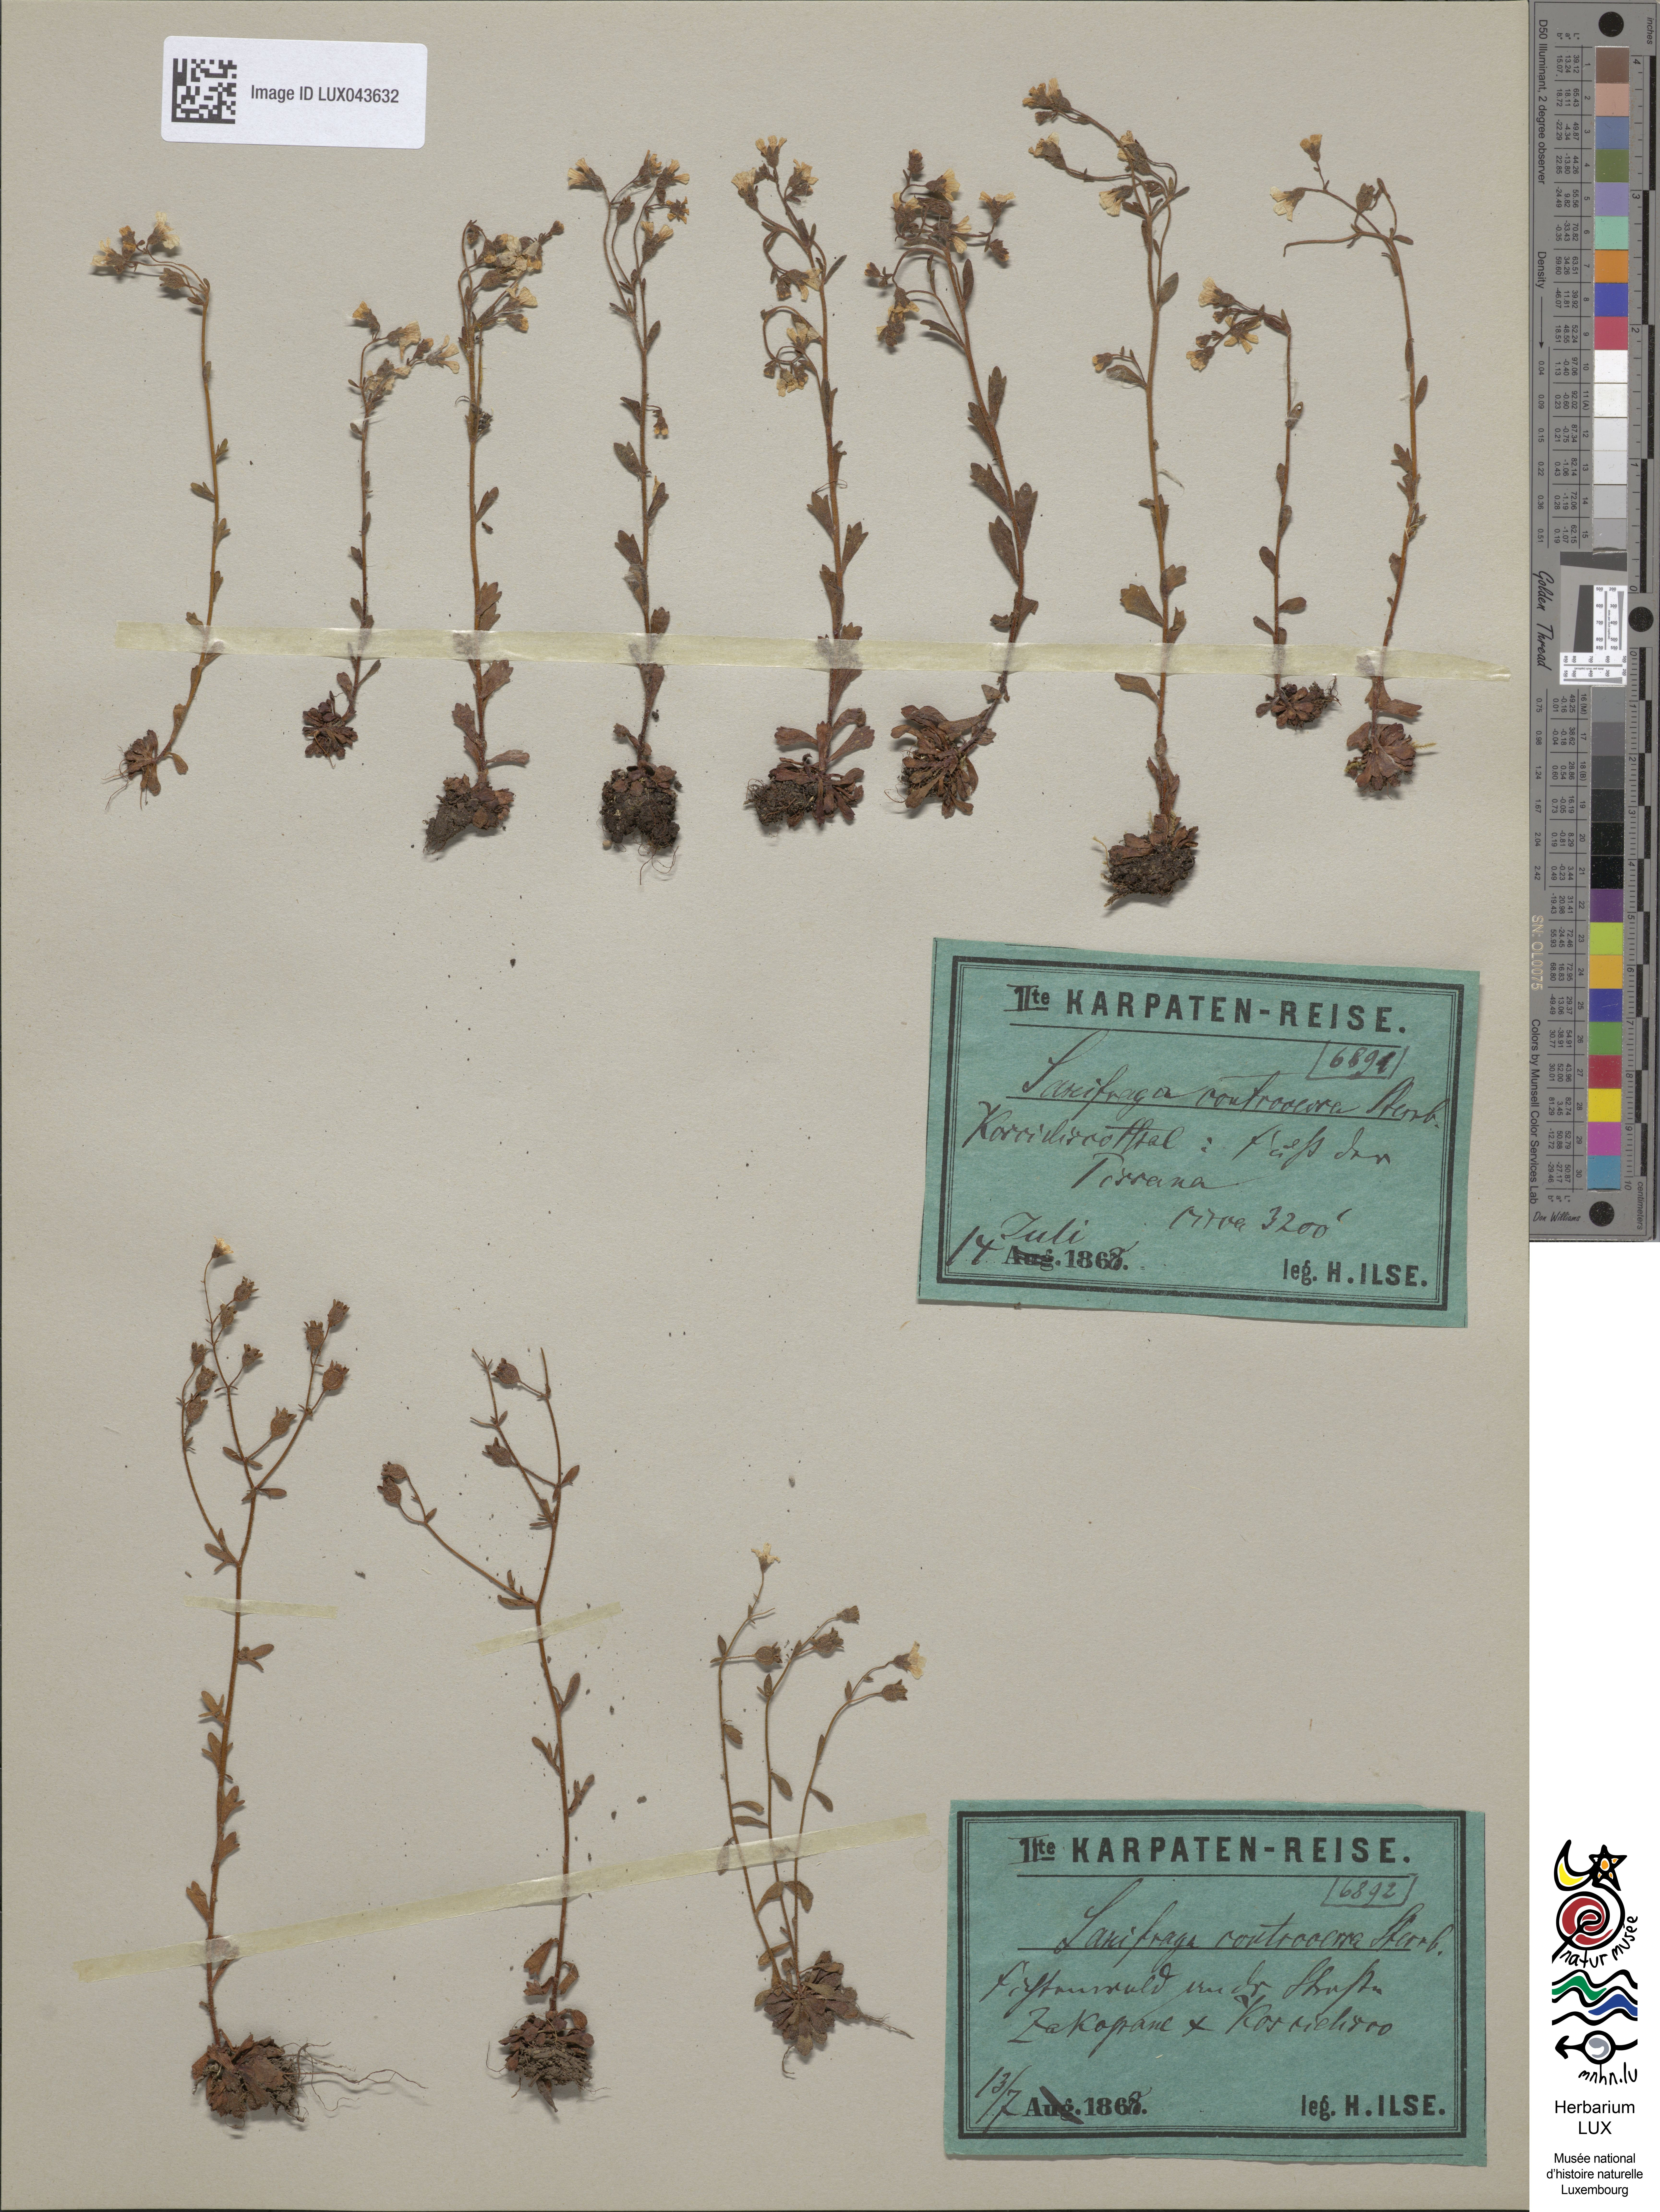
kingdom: Plantae
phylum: Tracheophyta
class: Magnoliopsida
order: Saxifragales
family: Saxifragaceae
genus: Saxifraga
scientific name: Saxifraga adscendens
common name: Ascending saxifrage
